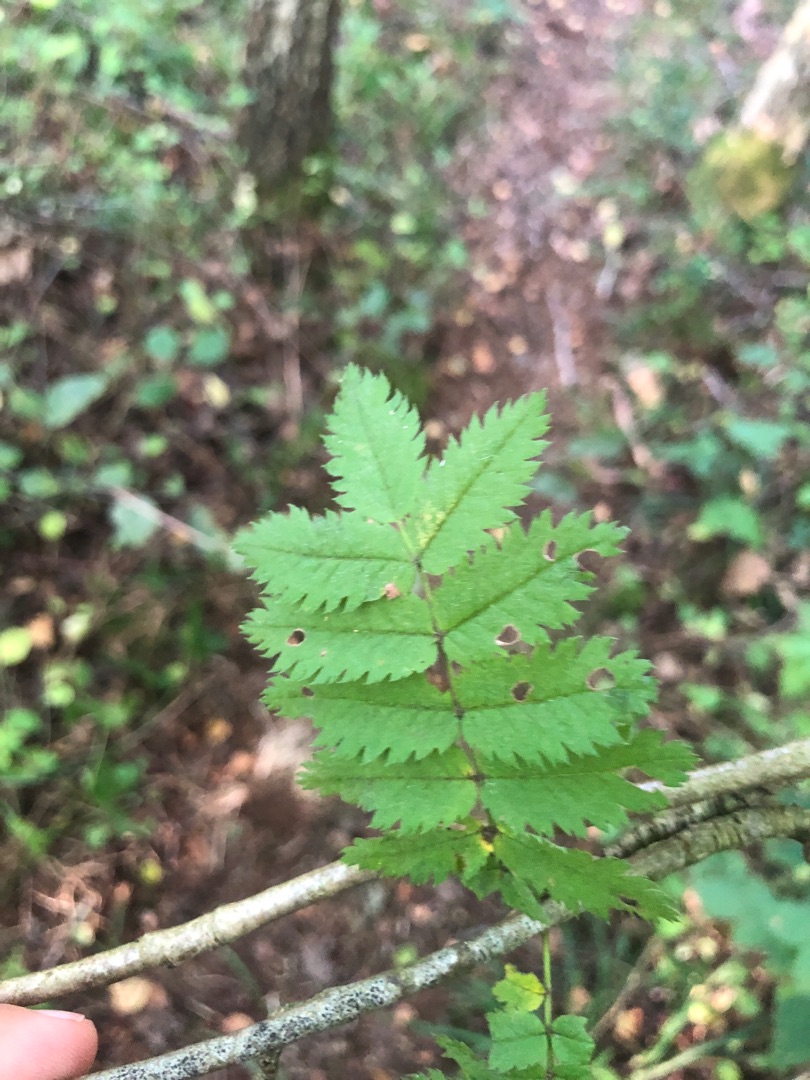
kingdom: Plantae
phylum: Tracheophyta
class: Magnoliopsida
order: Rosales
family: Rosaceae
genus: Sorbus
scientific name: Sorbus aucuparia
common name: Almindelig røn
